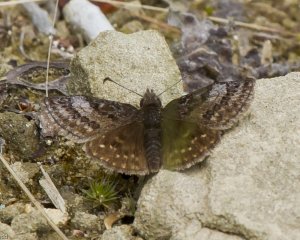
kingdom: Animalia
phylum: Arthropoda
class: Insecta
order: Lepidoptera
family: Hesperiidae
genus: Erynnis
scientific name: Erynnis icelus
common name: Dreamy Duskywing
